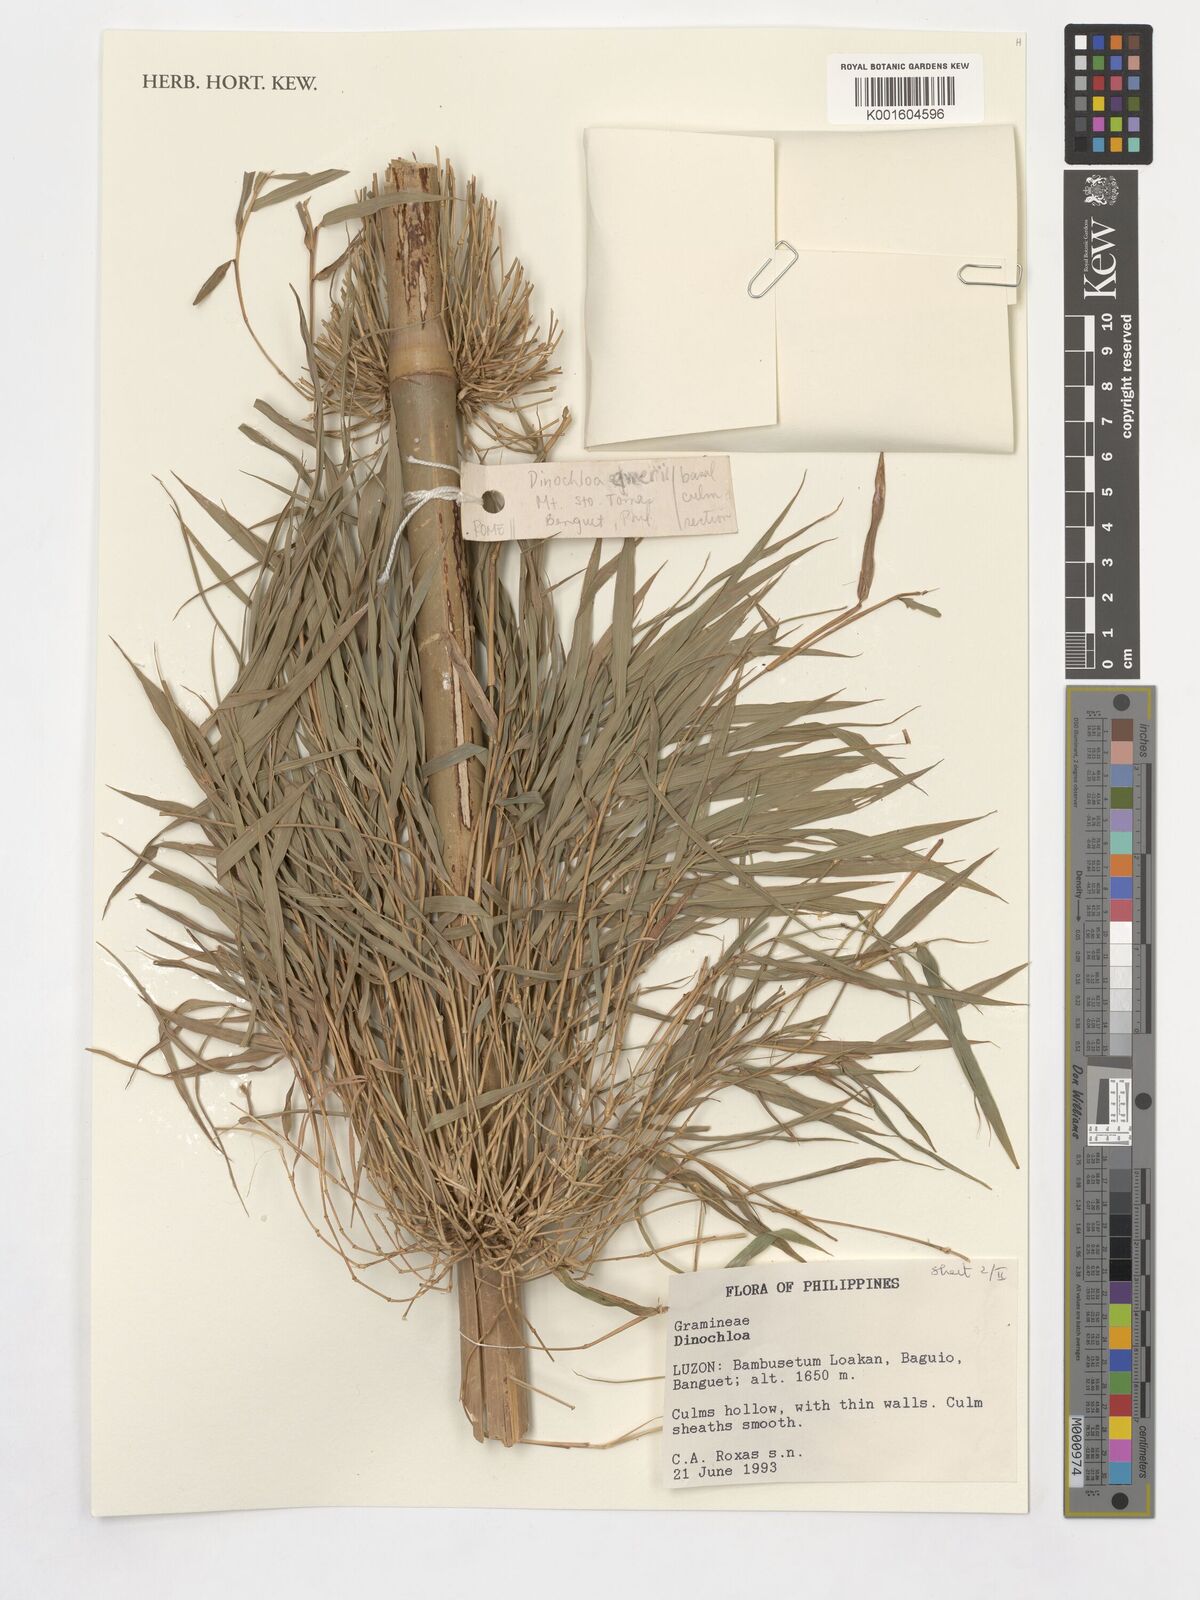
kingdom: Plantae
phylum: Tracheophyta
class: Liliopsida
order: Poales
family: Poaceae
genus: Dinochloa
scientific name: Dinochloa
